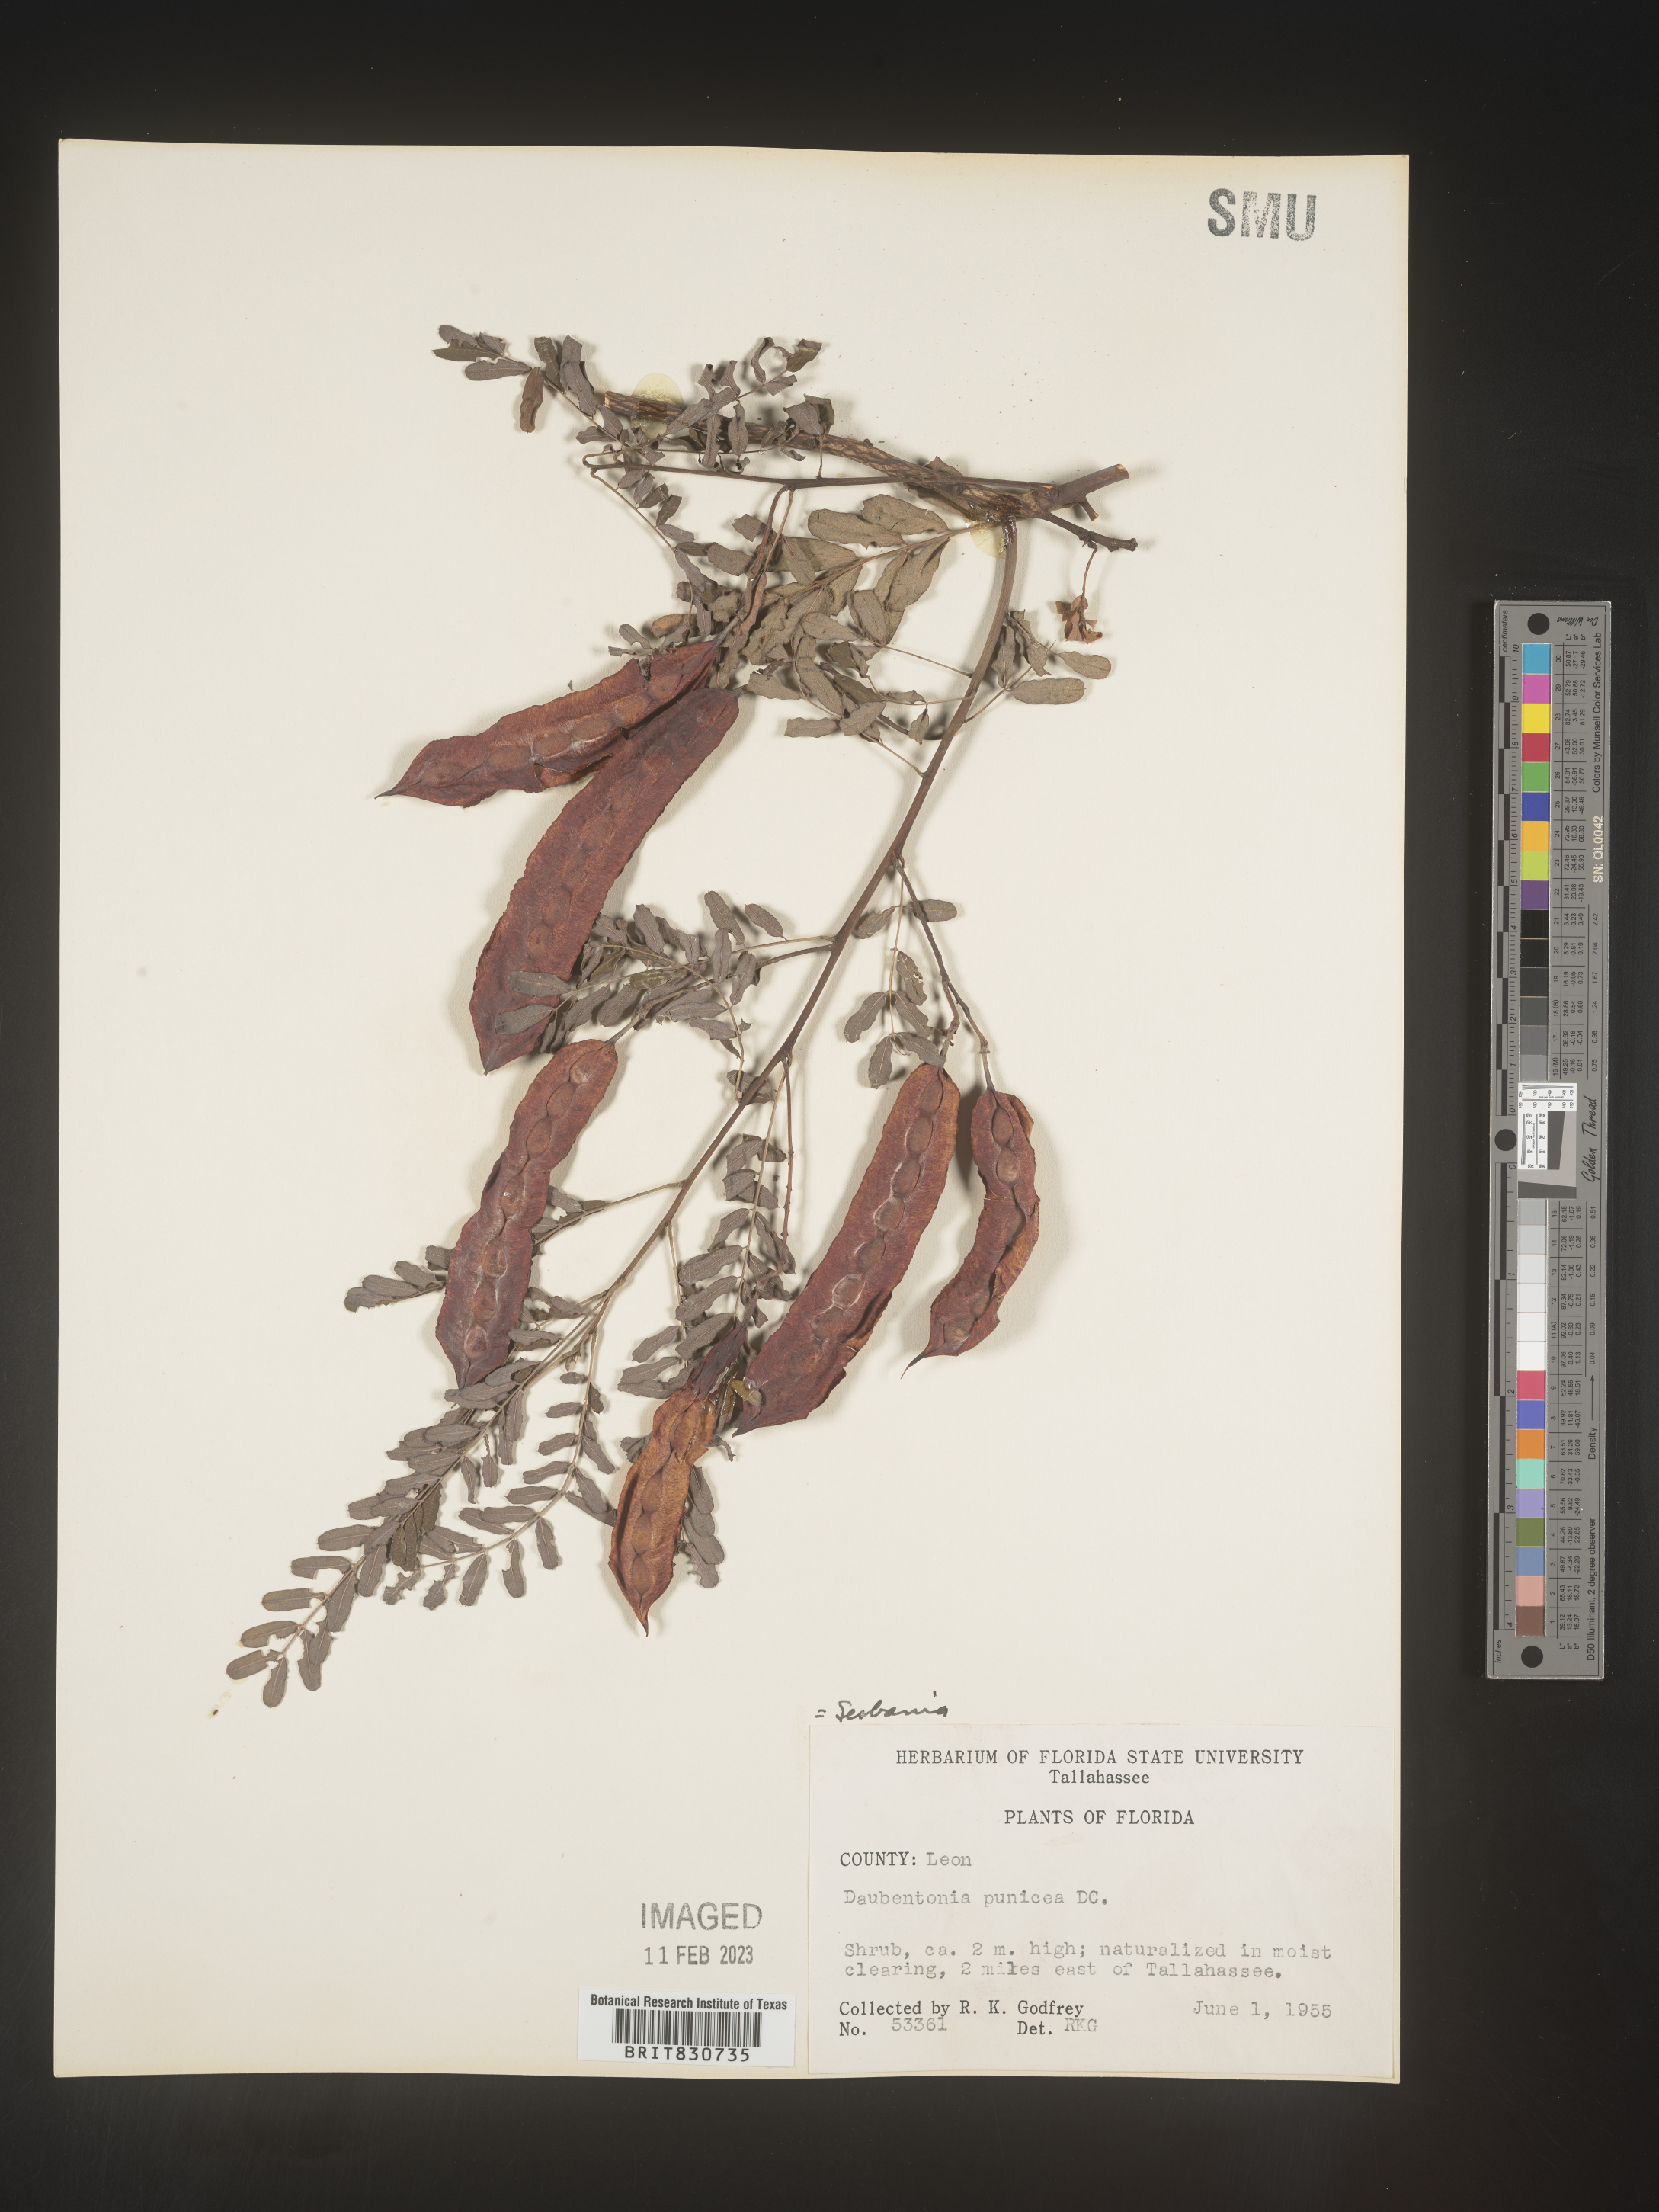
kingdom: Plantae
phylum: Tracheophyta
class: Magnoliopsida
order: Fabales
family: Fabaceae
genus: Sesbania
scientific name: Sesbania punicea
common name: Rattlebox
